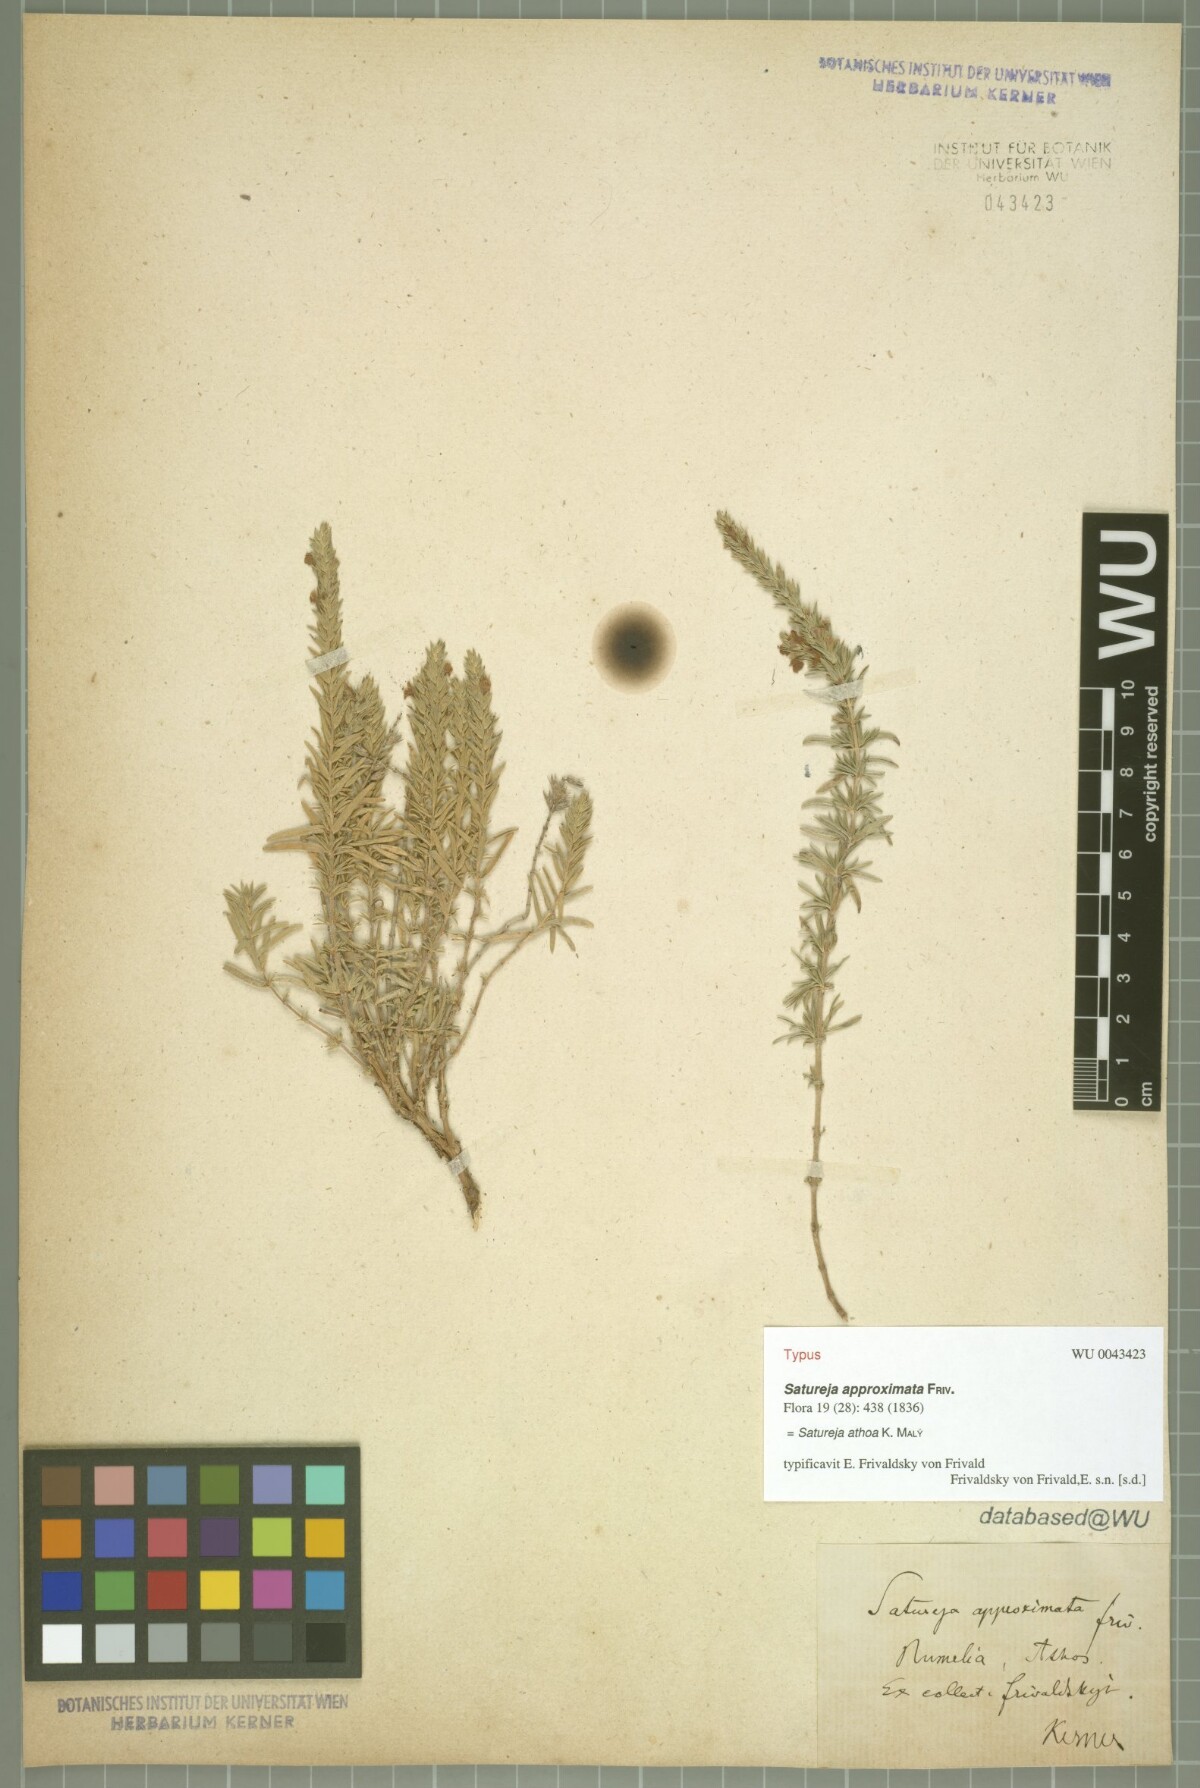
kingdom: Plantae
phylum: Tracheophyta
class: Magnoliopsida
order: Lamiales
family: Lamiaceae
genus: Satureja
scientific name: Satureja parnassica
